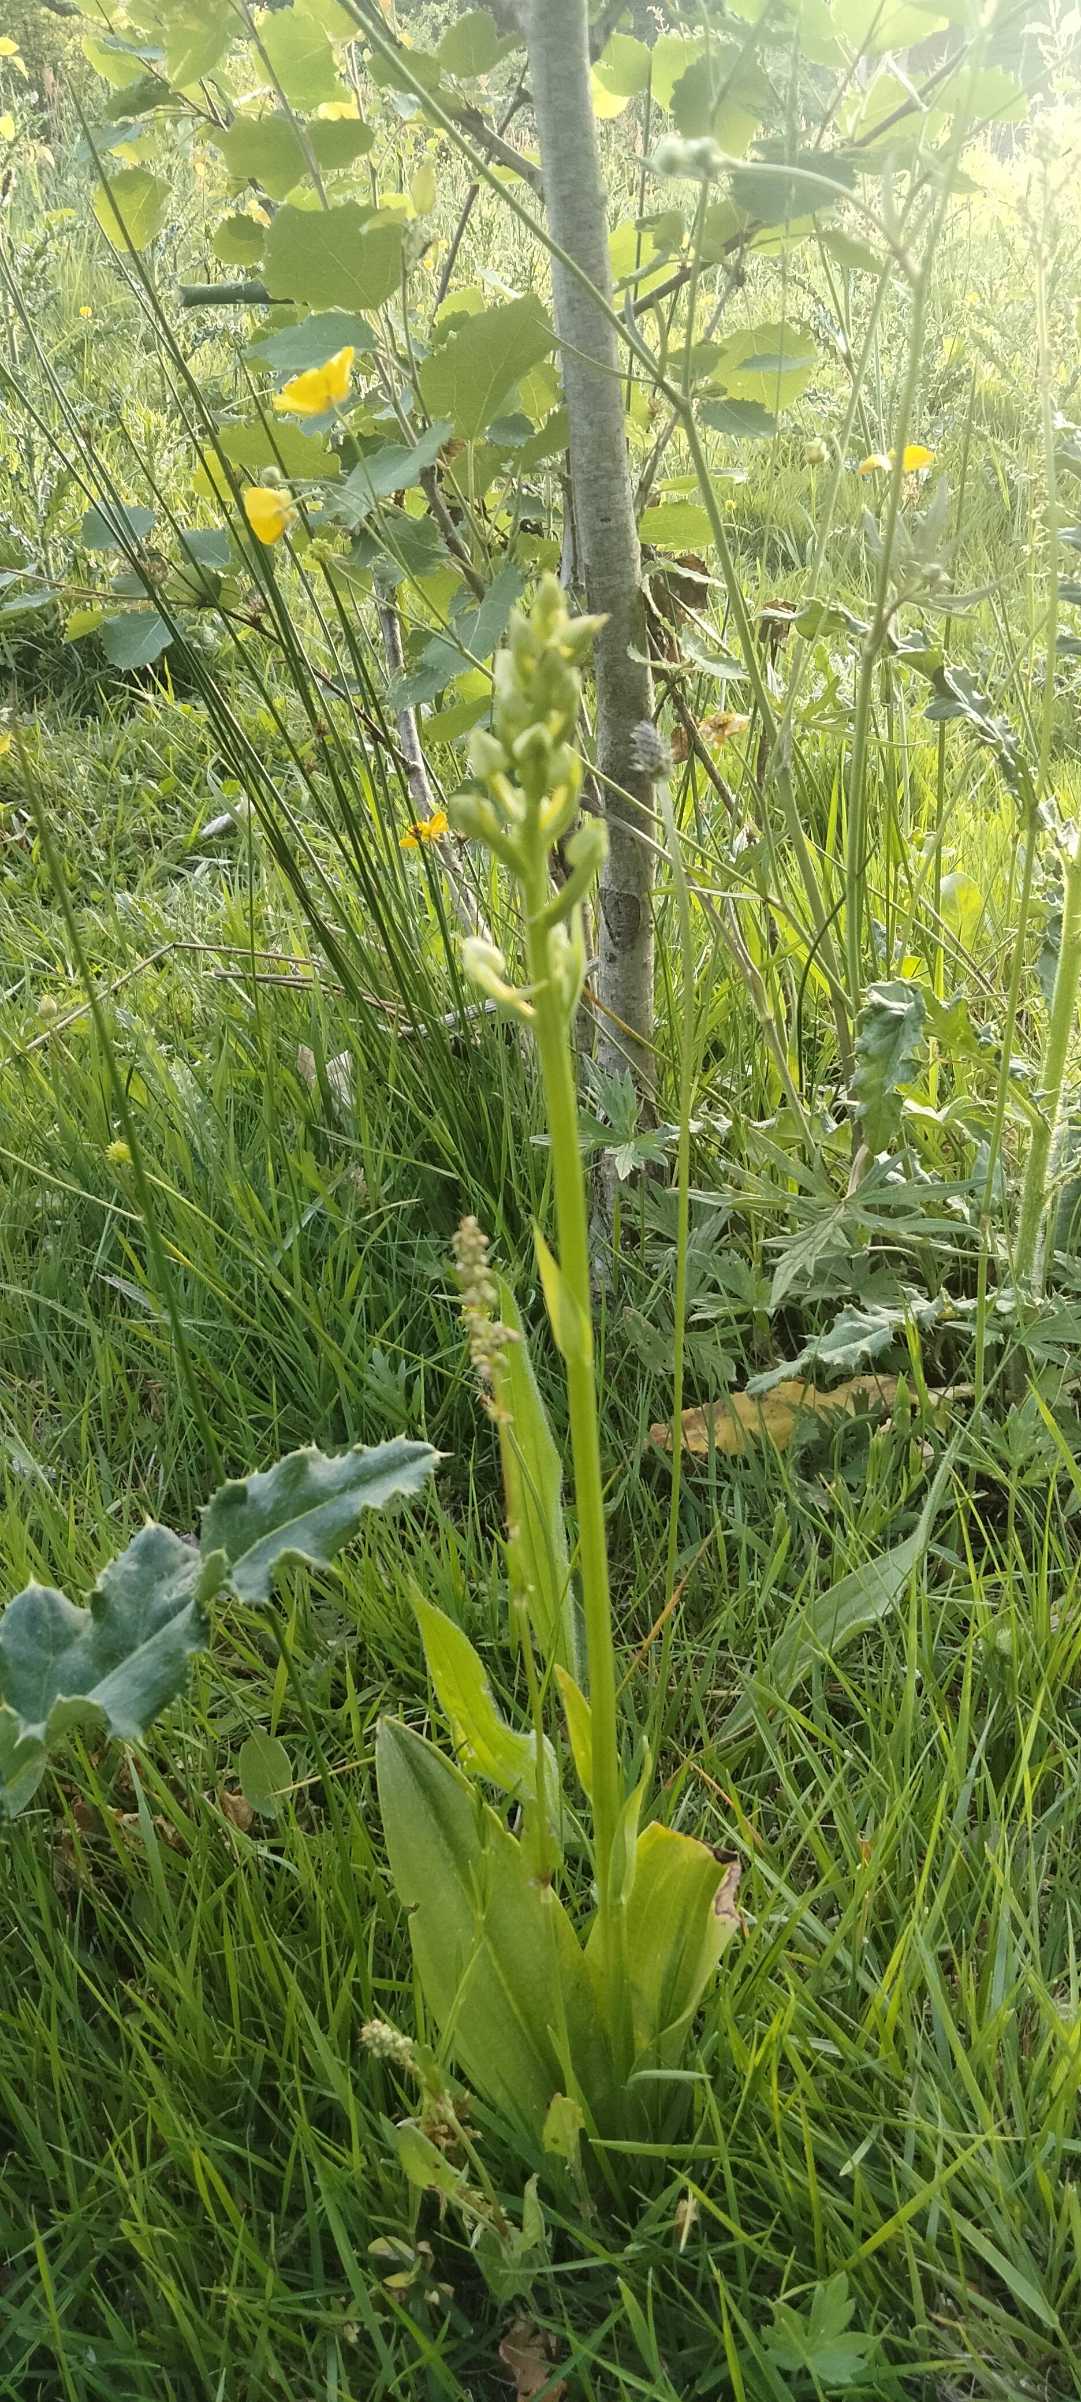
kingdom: Plantae
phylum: Tracheophyta
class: Liliopsida
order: Asparagales
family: Orchidaceae
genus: Platanthera
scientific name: Platanthera chlorantha
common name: Skov-gøgelilje
